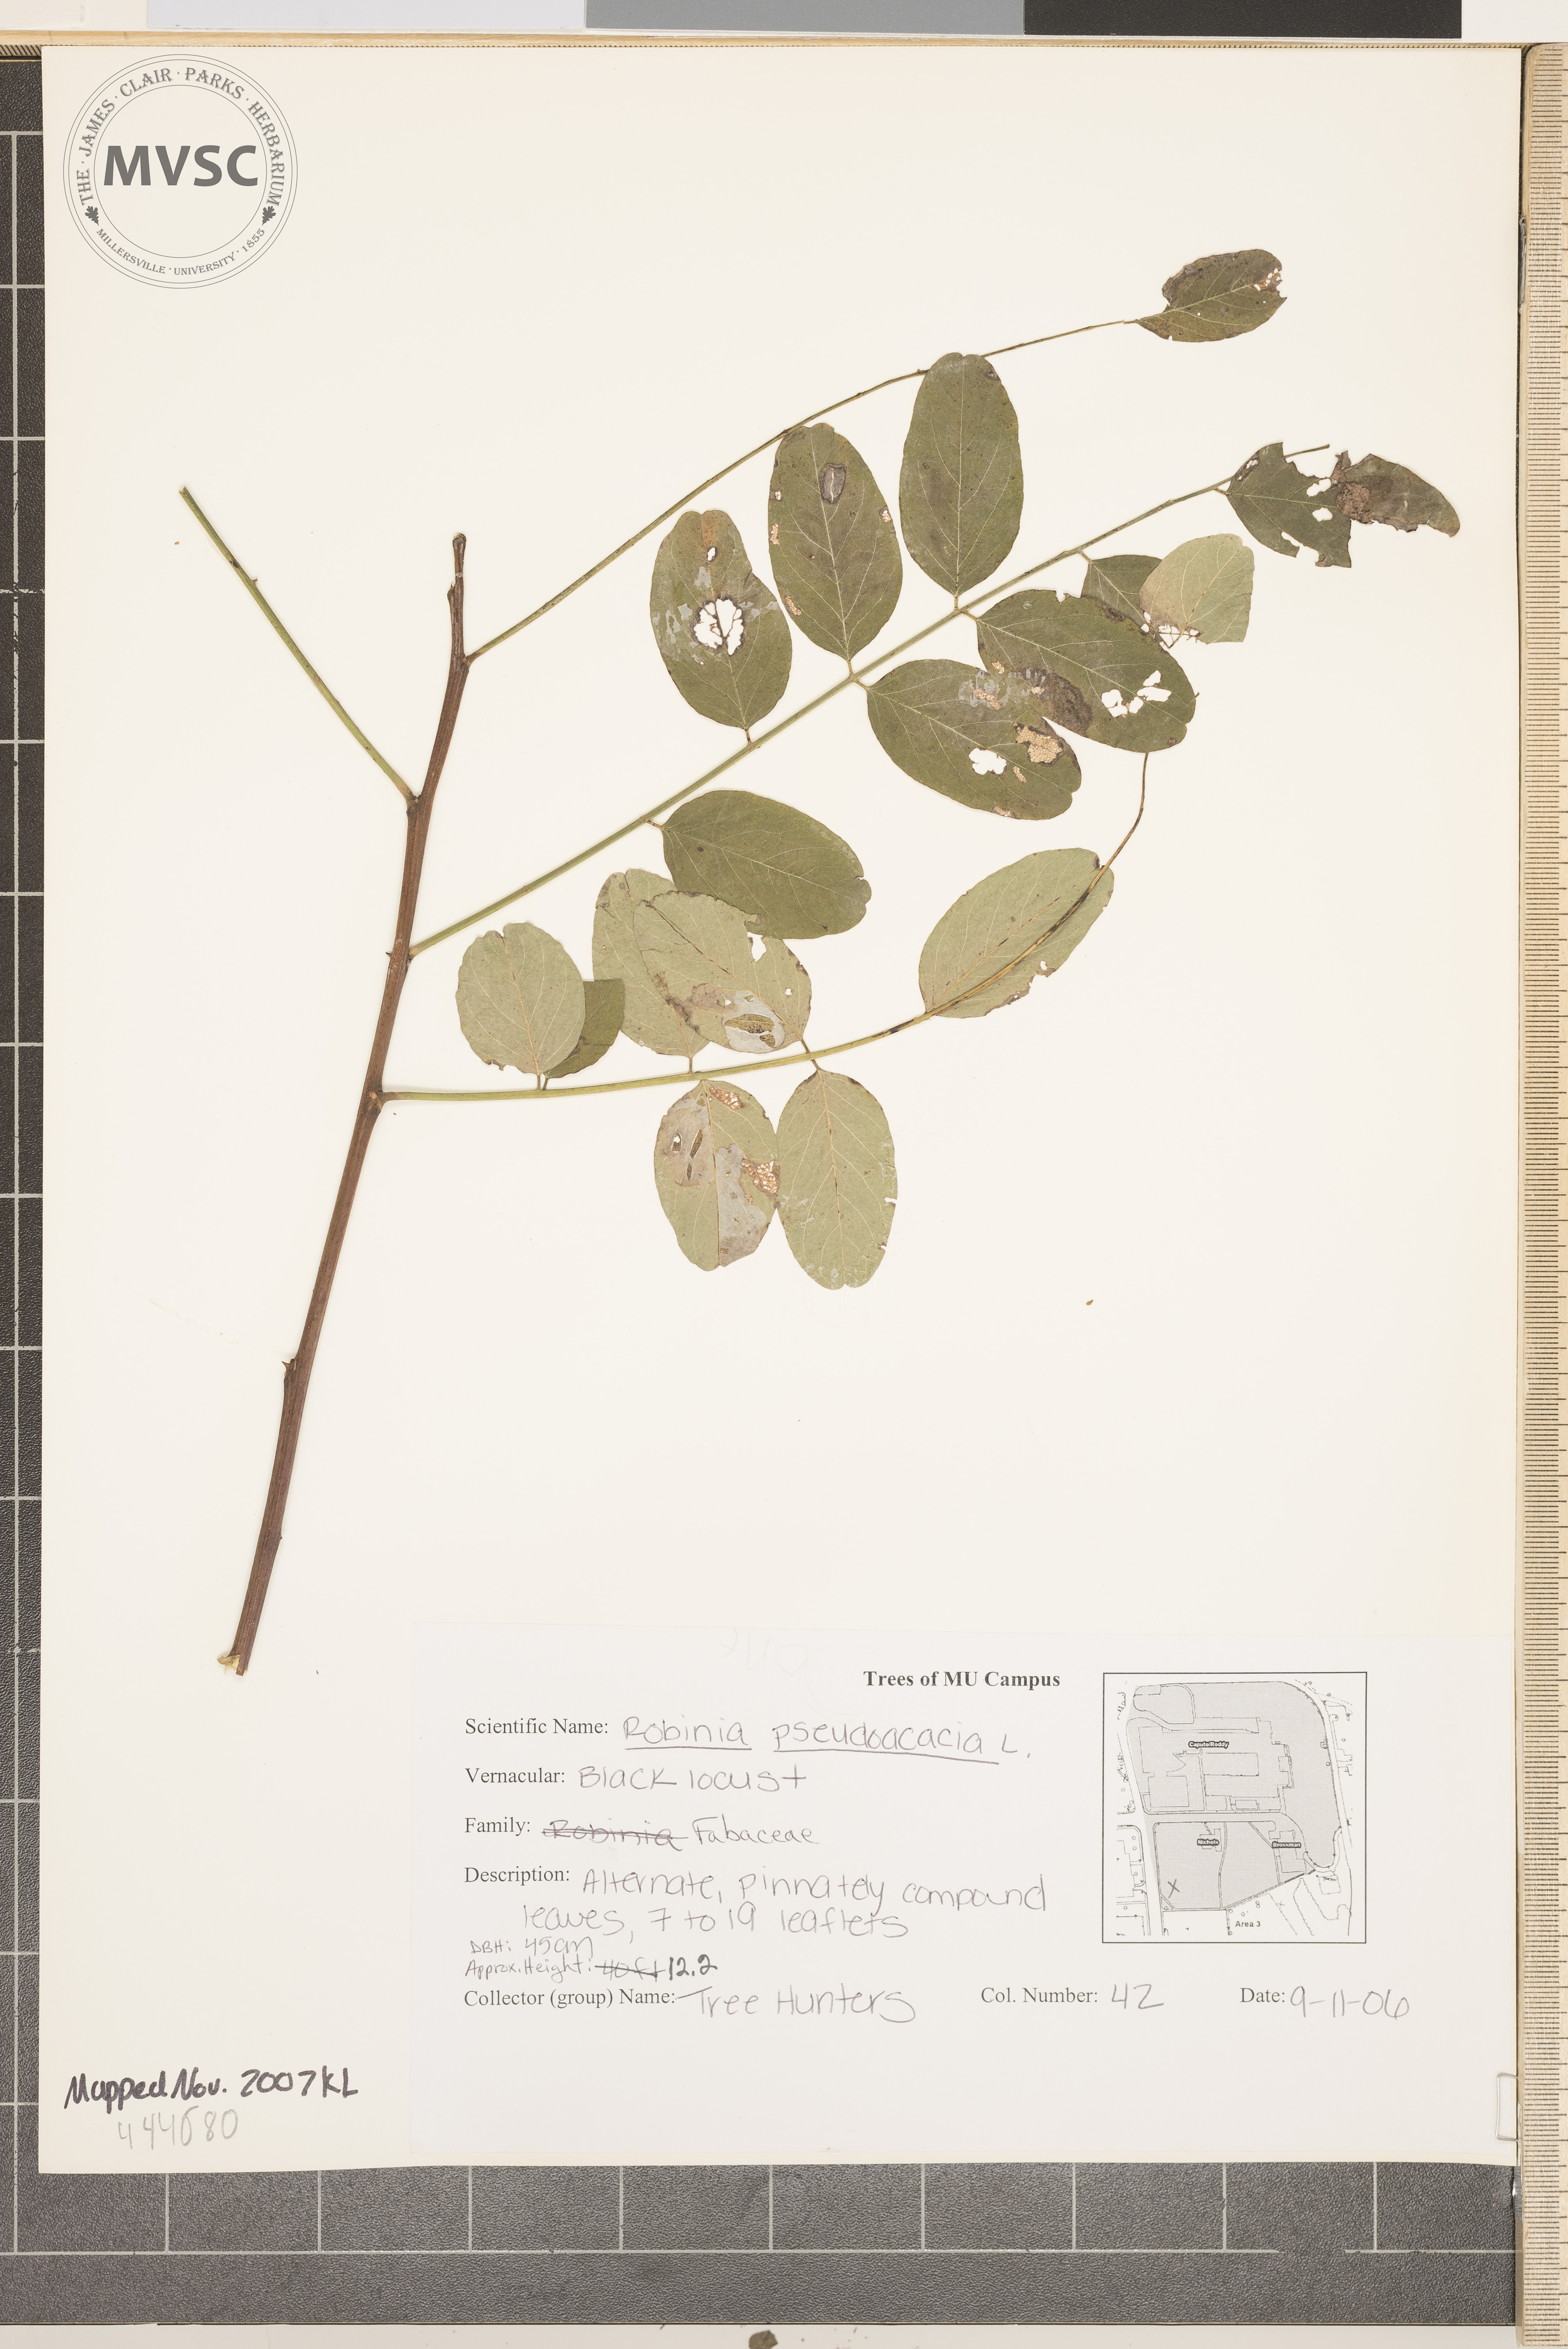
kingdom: Plantae
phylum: Tracheophyta
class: Magnoliopsida
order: Fabales
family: Fabaceae
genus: Robinia
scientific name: Robinia pseudoacacia
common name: Black Locust
